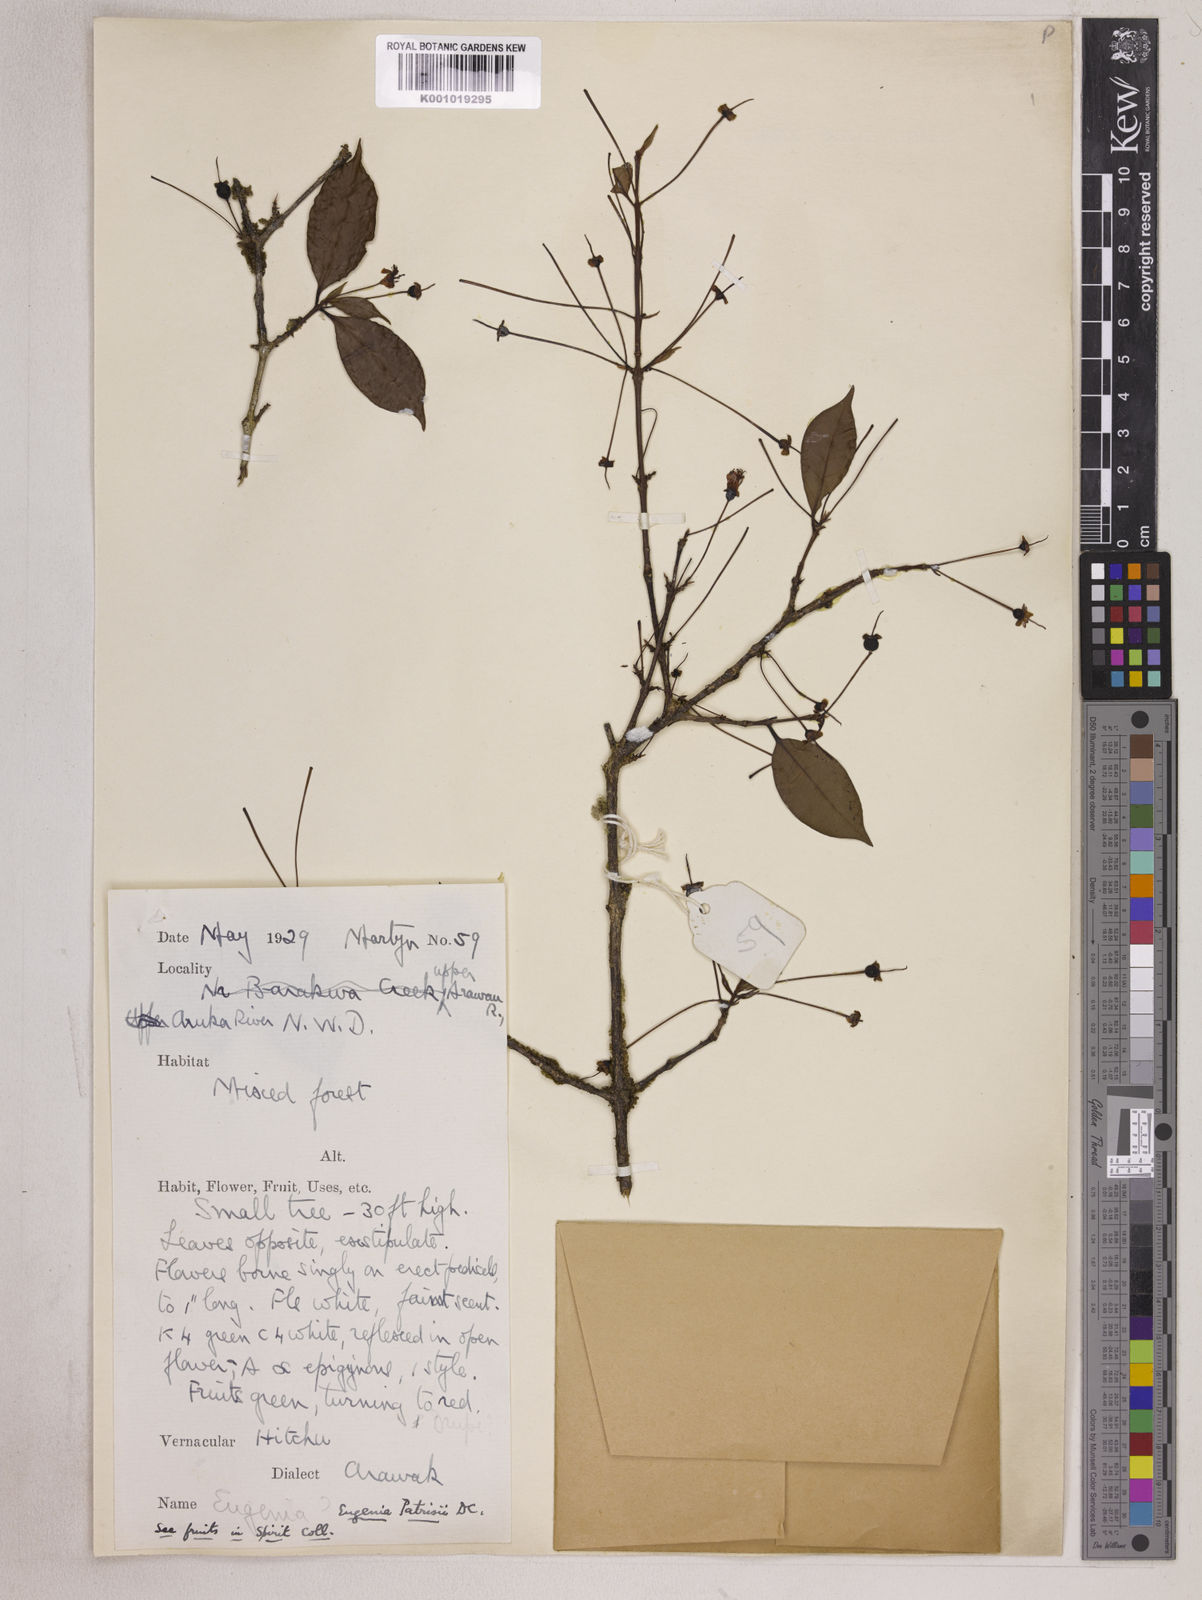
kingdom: Plantae
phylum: Tracheophyta
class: Magnoliopsida
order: Myrtales
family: Myrtaceae
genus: Eugenia
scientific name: Eugenia patrisii
